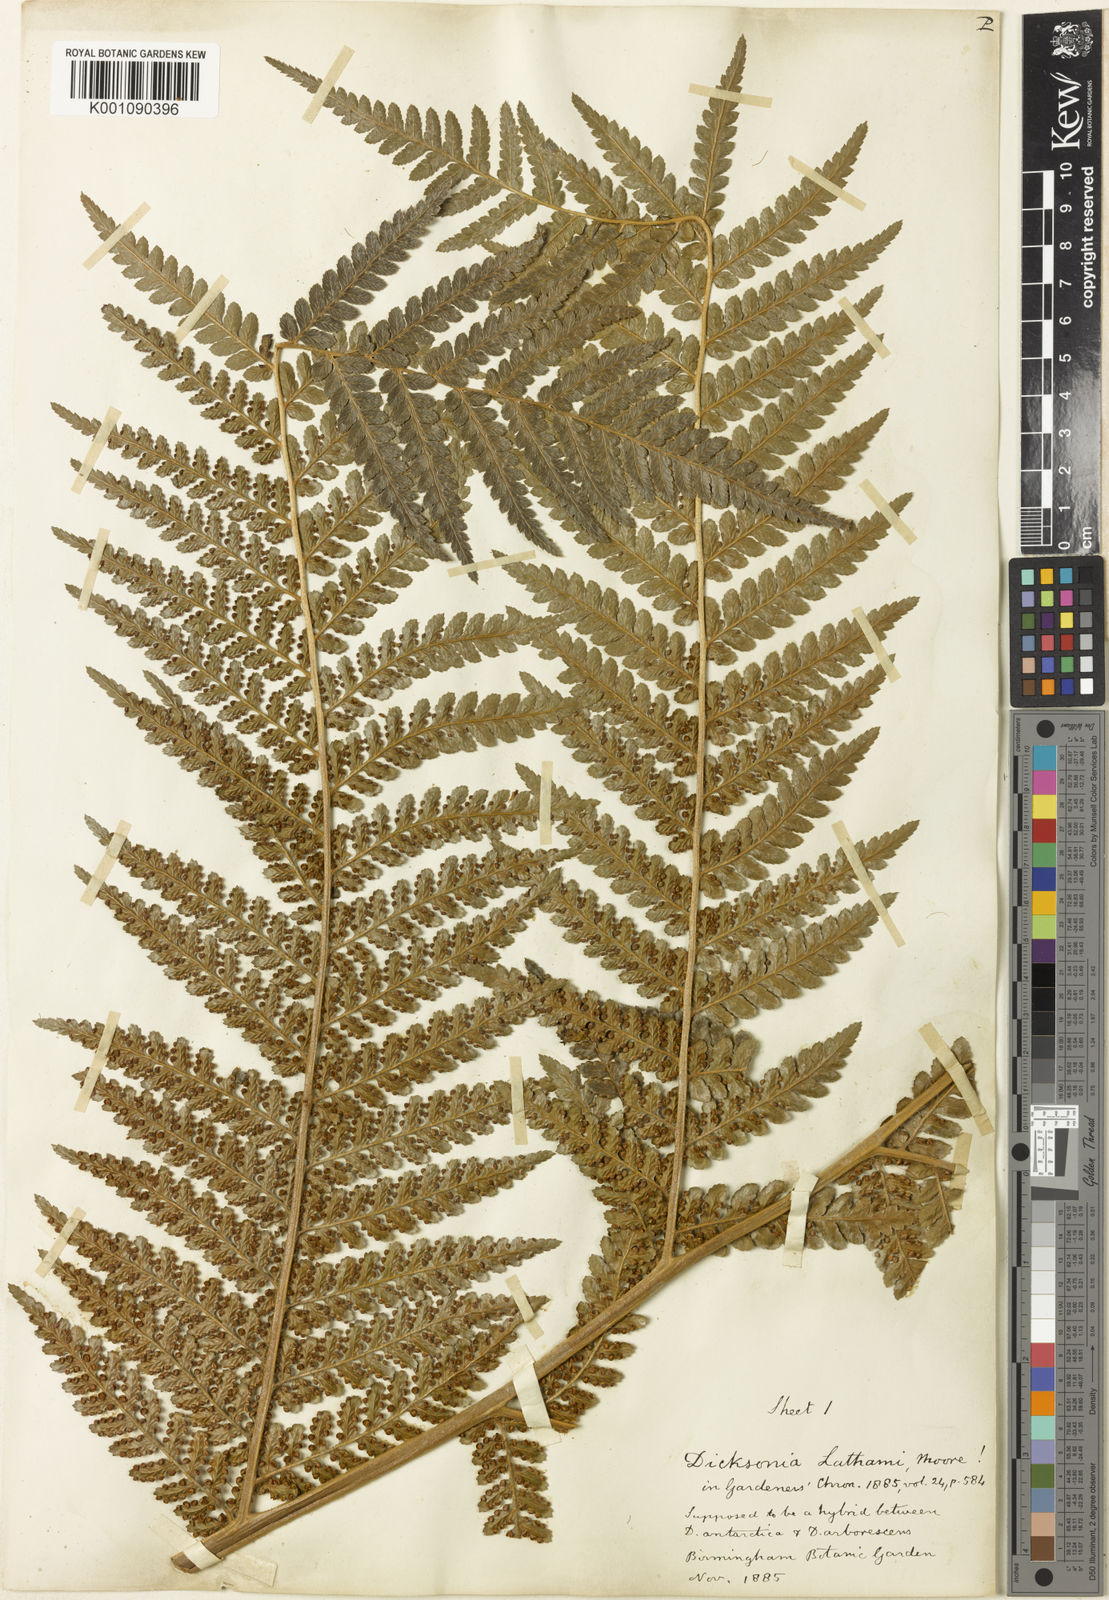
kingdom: Plantae
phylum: Tracheophyta
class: Polypodiopsida
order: Cyatheales
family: Dicksoniaceae
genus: Dicksonia
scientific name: Dicksonia lathamii
